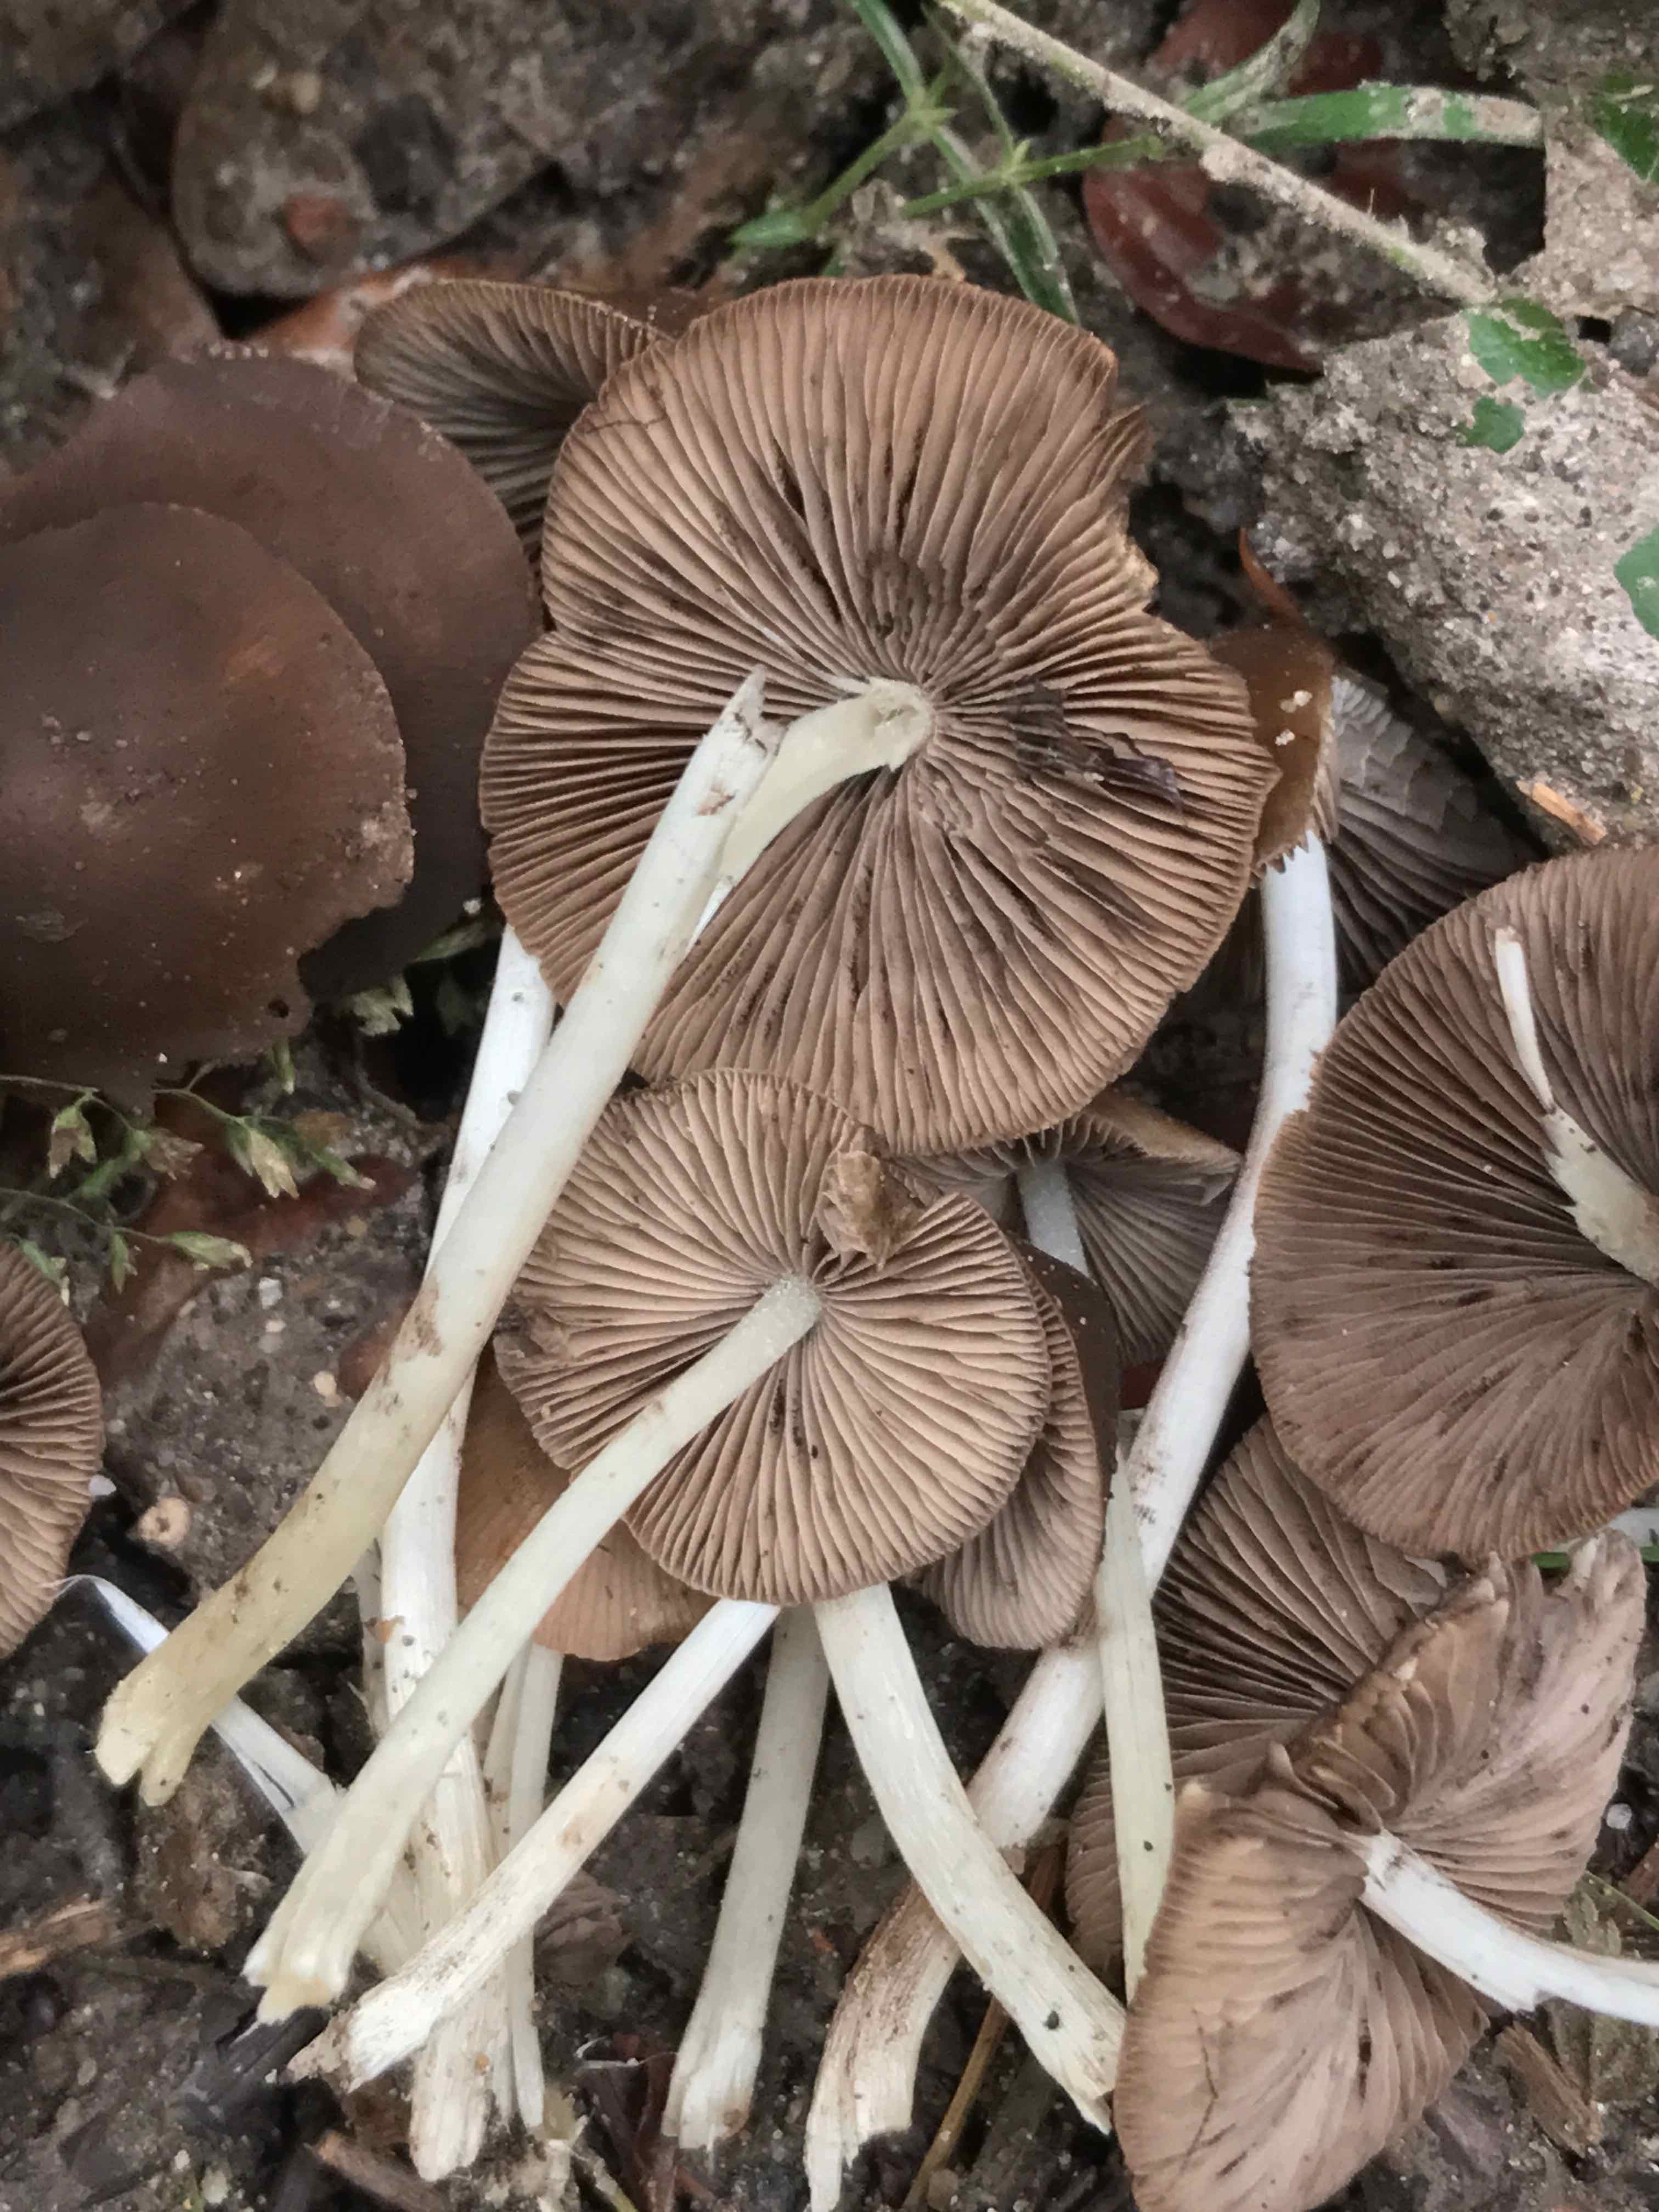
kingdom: Fungi
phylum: Basidiomycota
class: Agaricomycetes
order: Agaricales
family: Psathyrellaceae
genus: Psathyrella
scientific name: Psathyrella piluliformis
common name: lysstokket mørkhat
